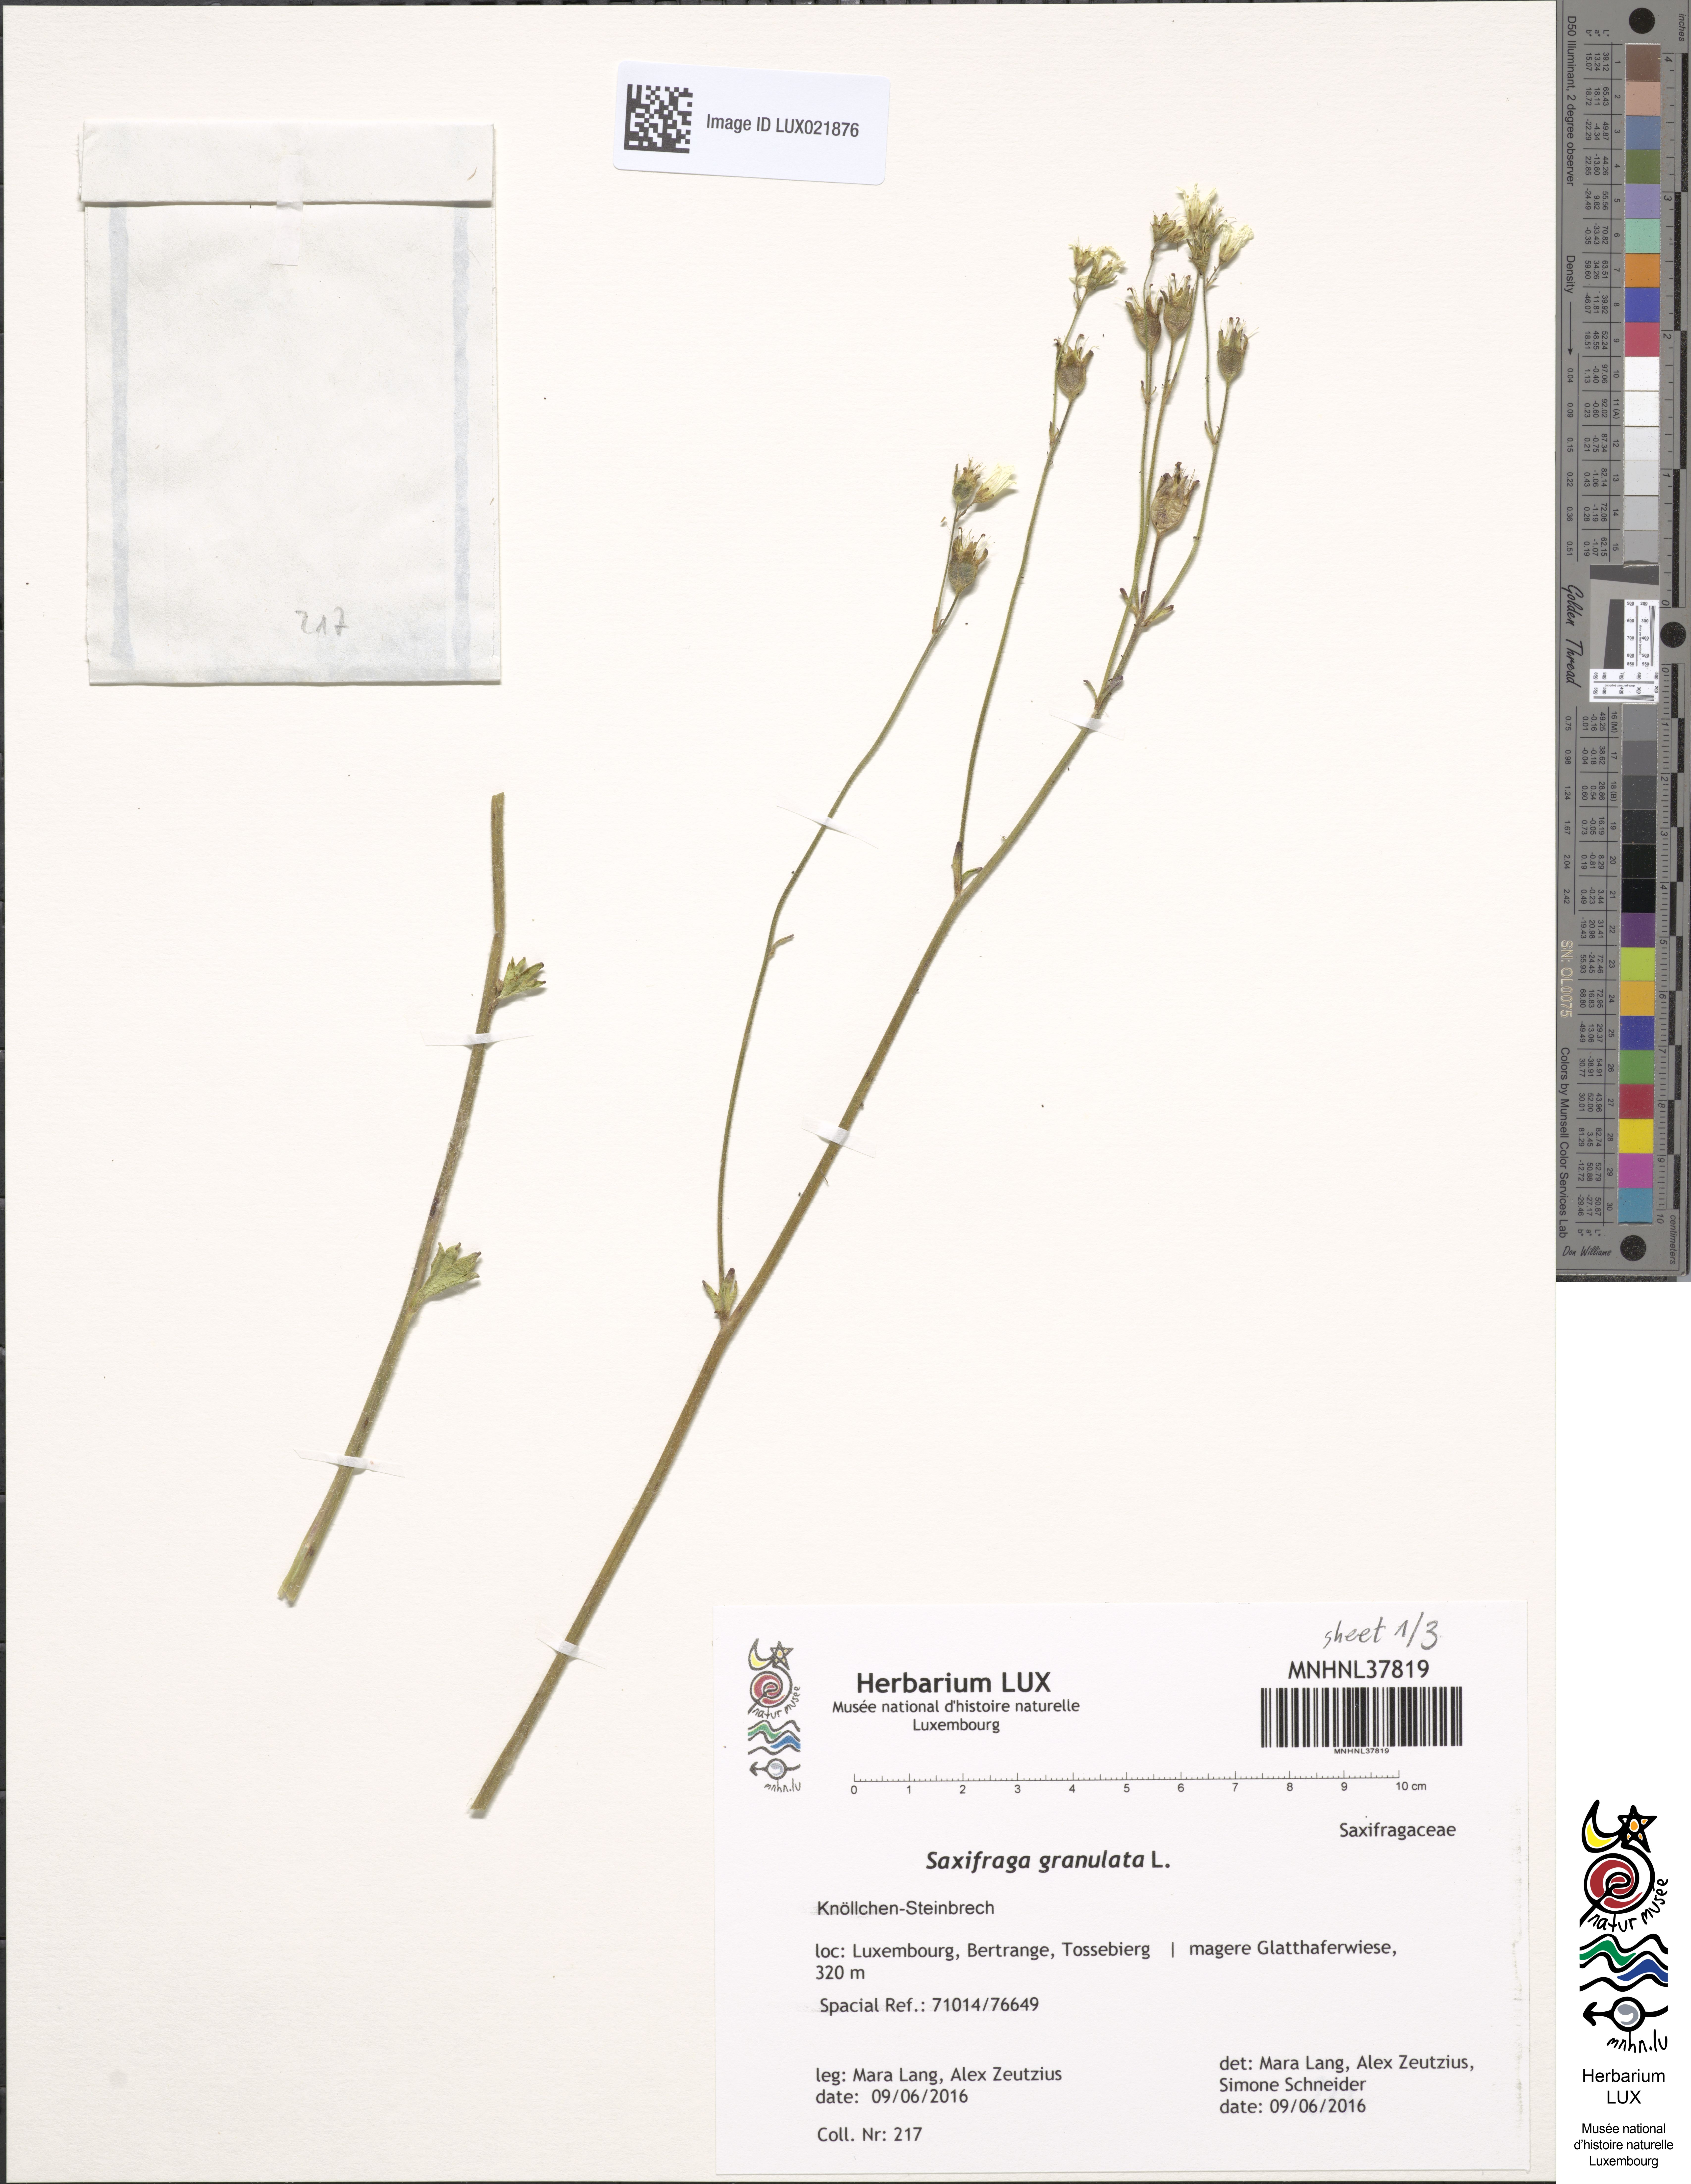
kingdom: Plantae
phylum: Tracheophyta
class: Magnoliopsida
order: Saxifragales
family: Saxifragaceae
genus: Saxifraga
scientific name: Saxifraga granulata
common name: Meadow saxifrage
